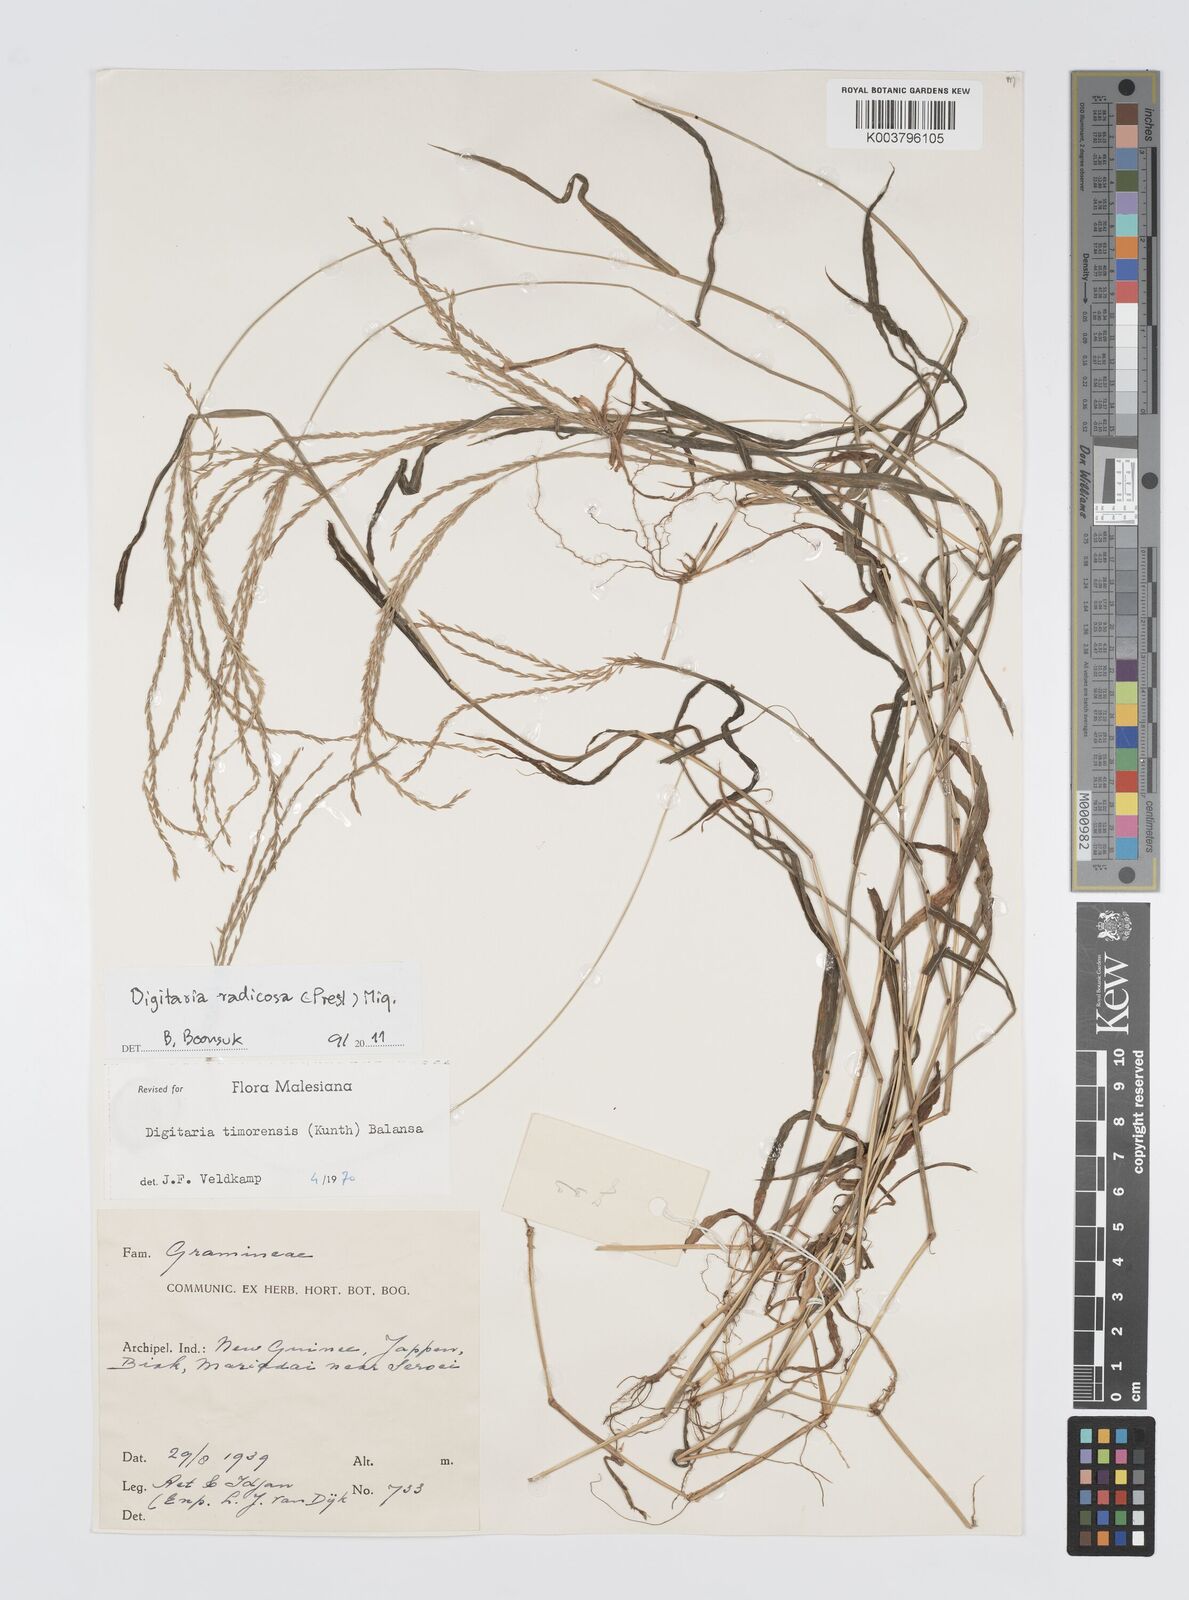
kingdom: Plantae
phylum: Tracheophyta
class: Liliopsida
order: Poales
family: Poaceae
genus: Digitaria
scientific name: Digitaria radicosa
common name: Trailing crabgrass
